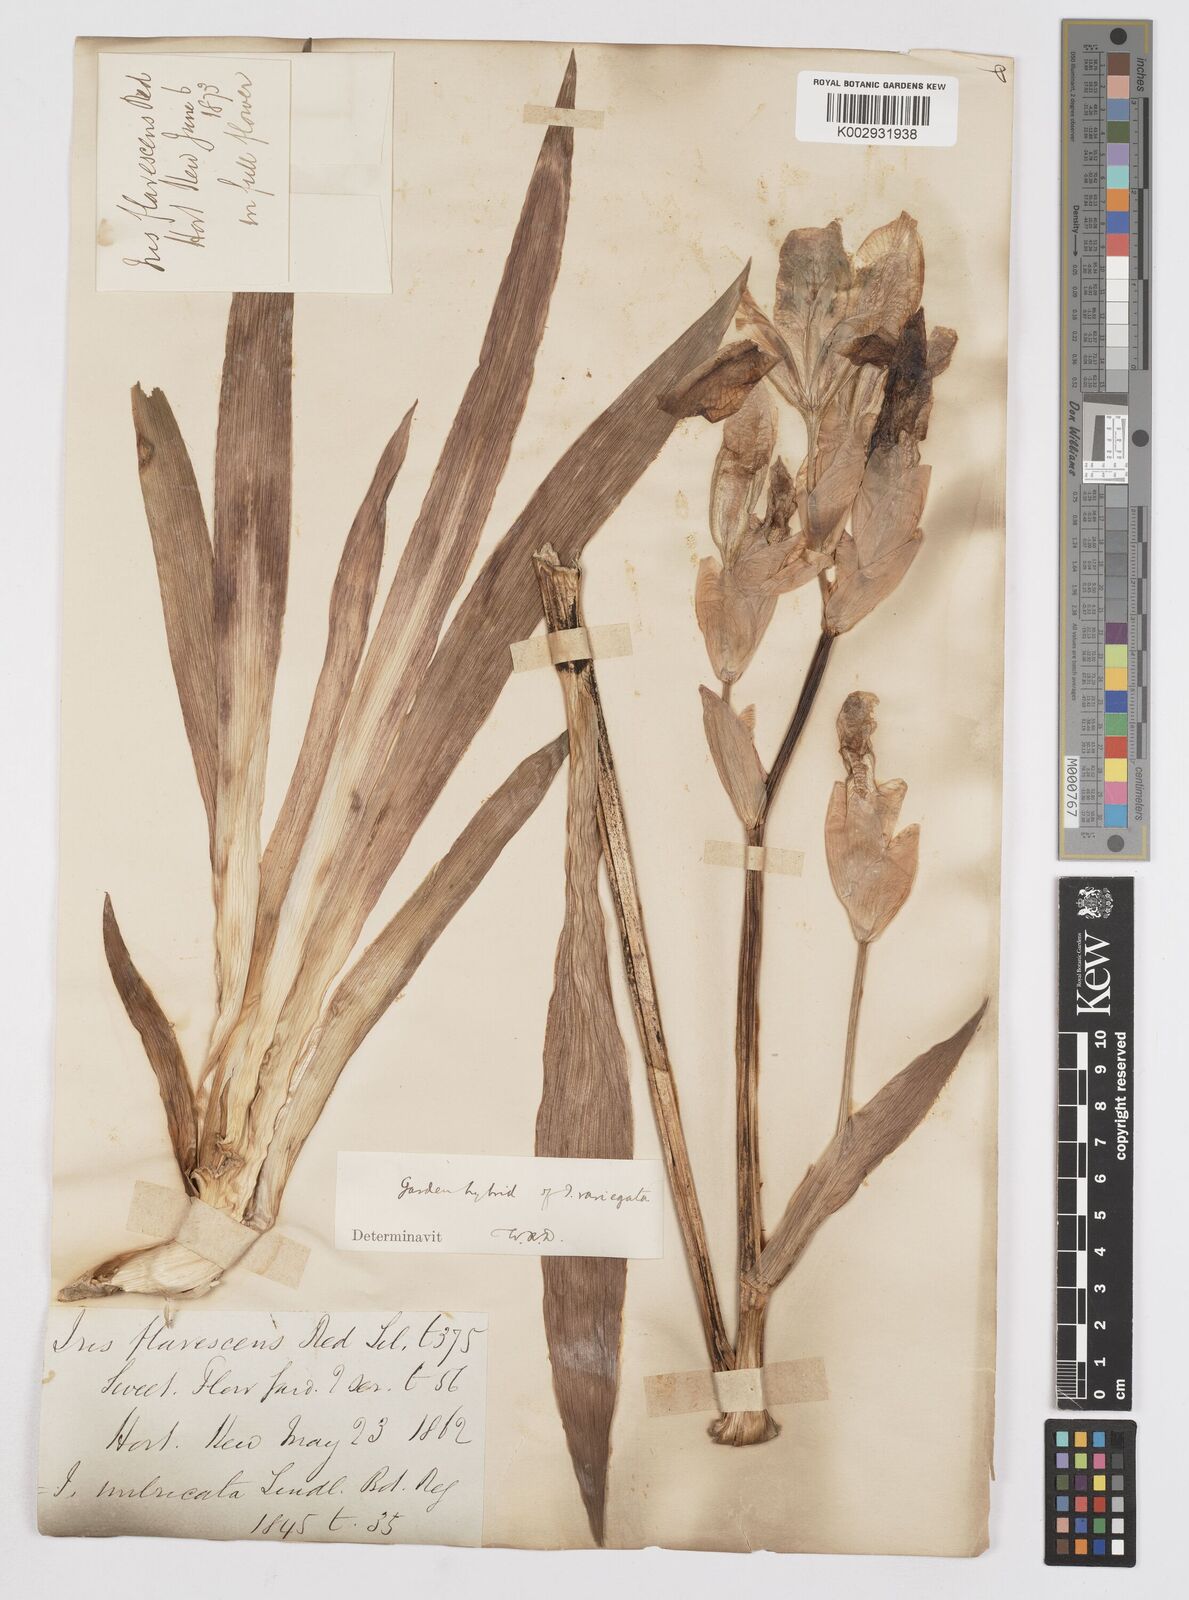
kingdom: Plantae
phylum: Tracheophyta
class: Liliopsida
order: Asparagales
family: Iridaceae
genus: Iris
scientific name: Iris variegata
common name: Hungarian iris
